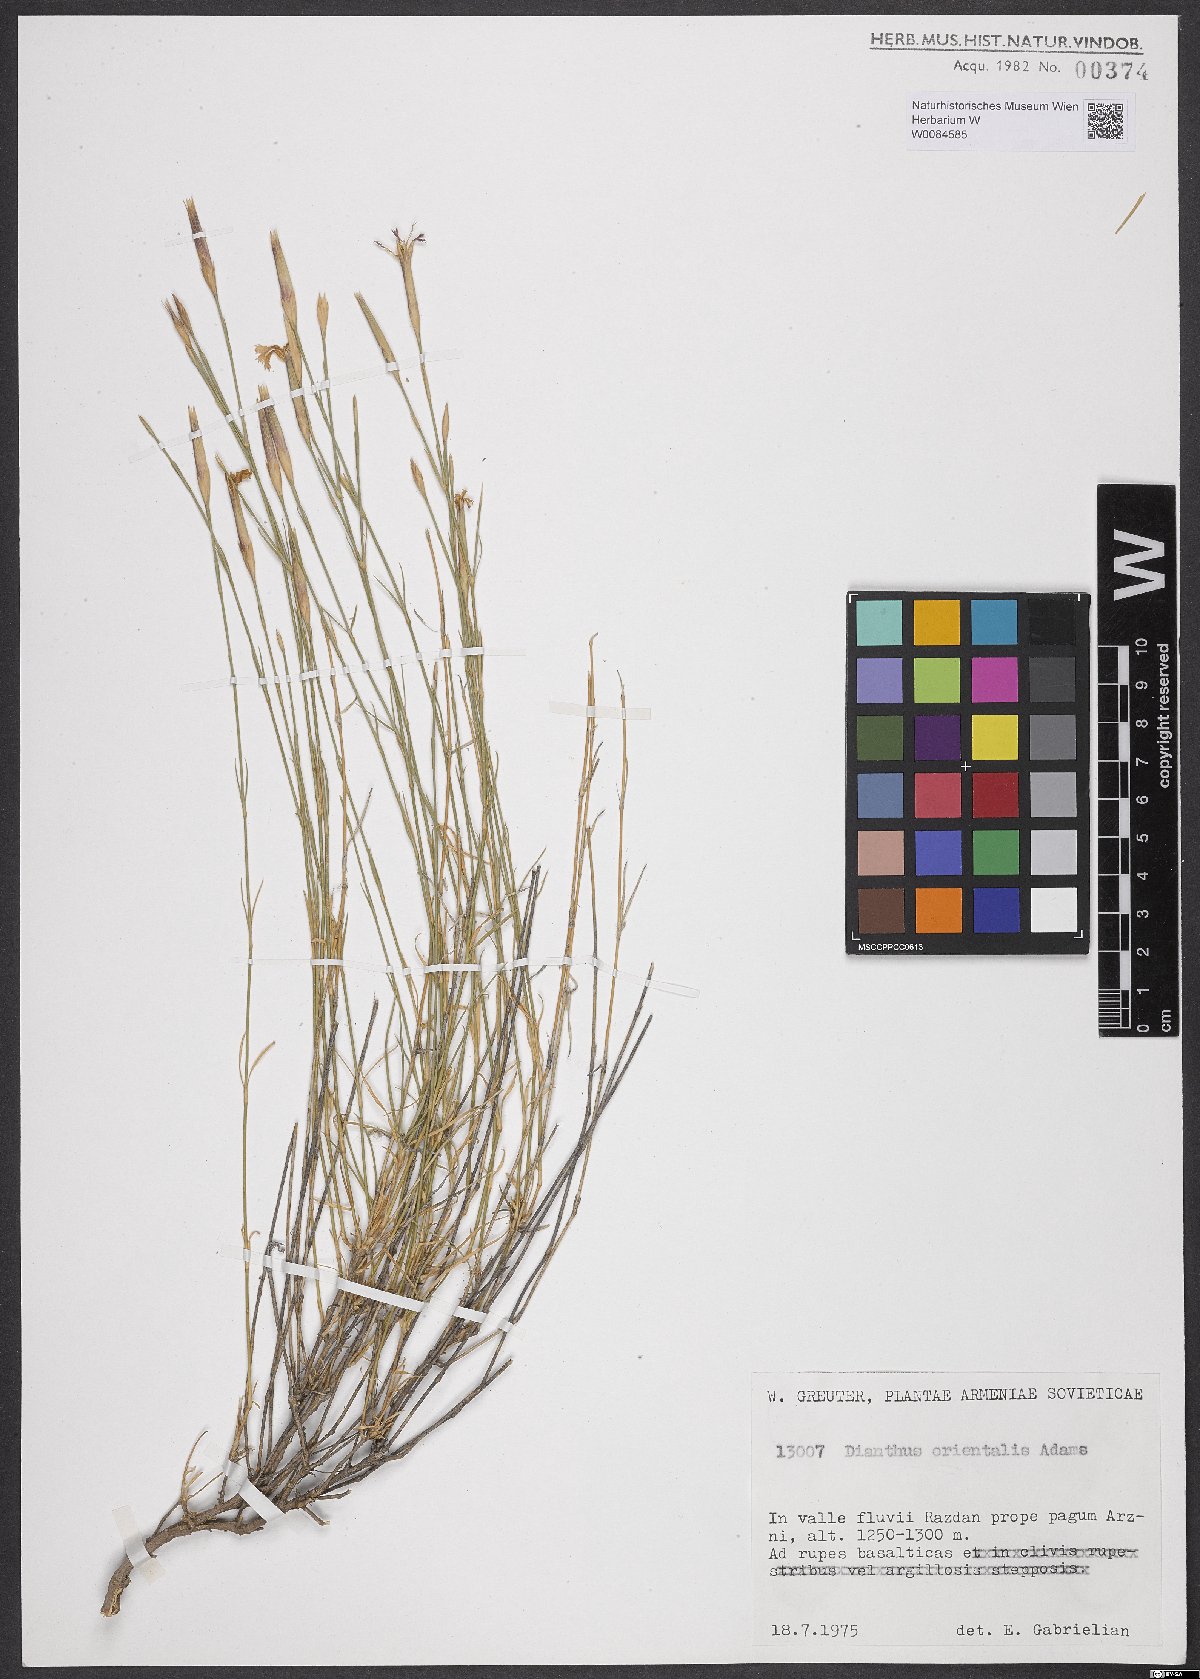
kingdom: Plantae
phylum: Tracheophyta
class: Magnoliopsida
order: Caryophyllales
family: Caryophyllaceae
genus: Dianthus
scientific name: Dianthus orientalis
